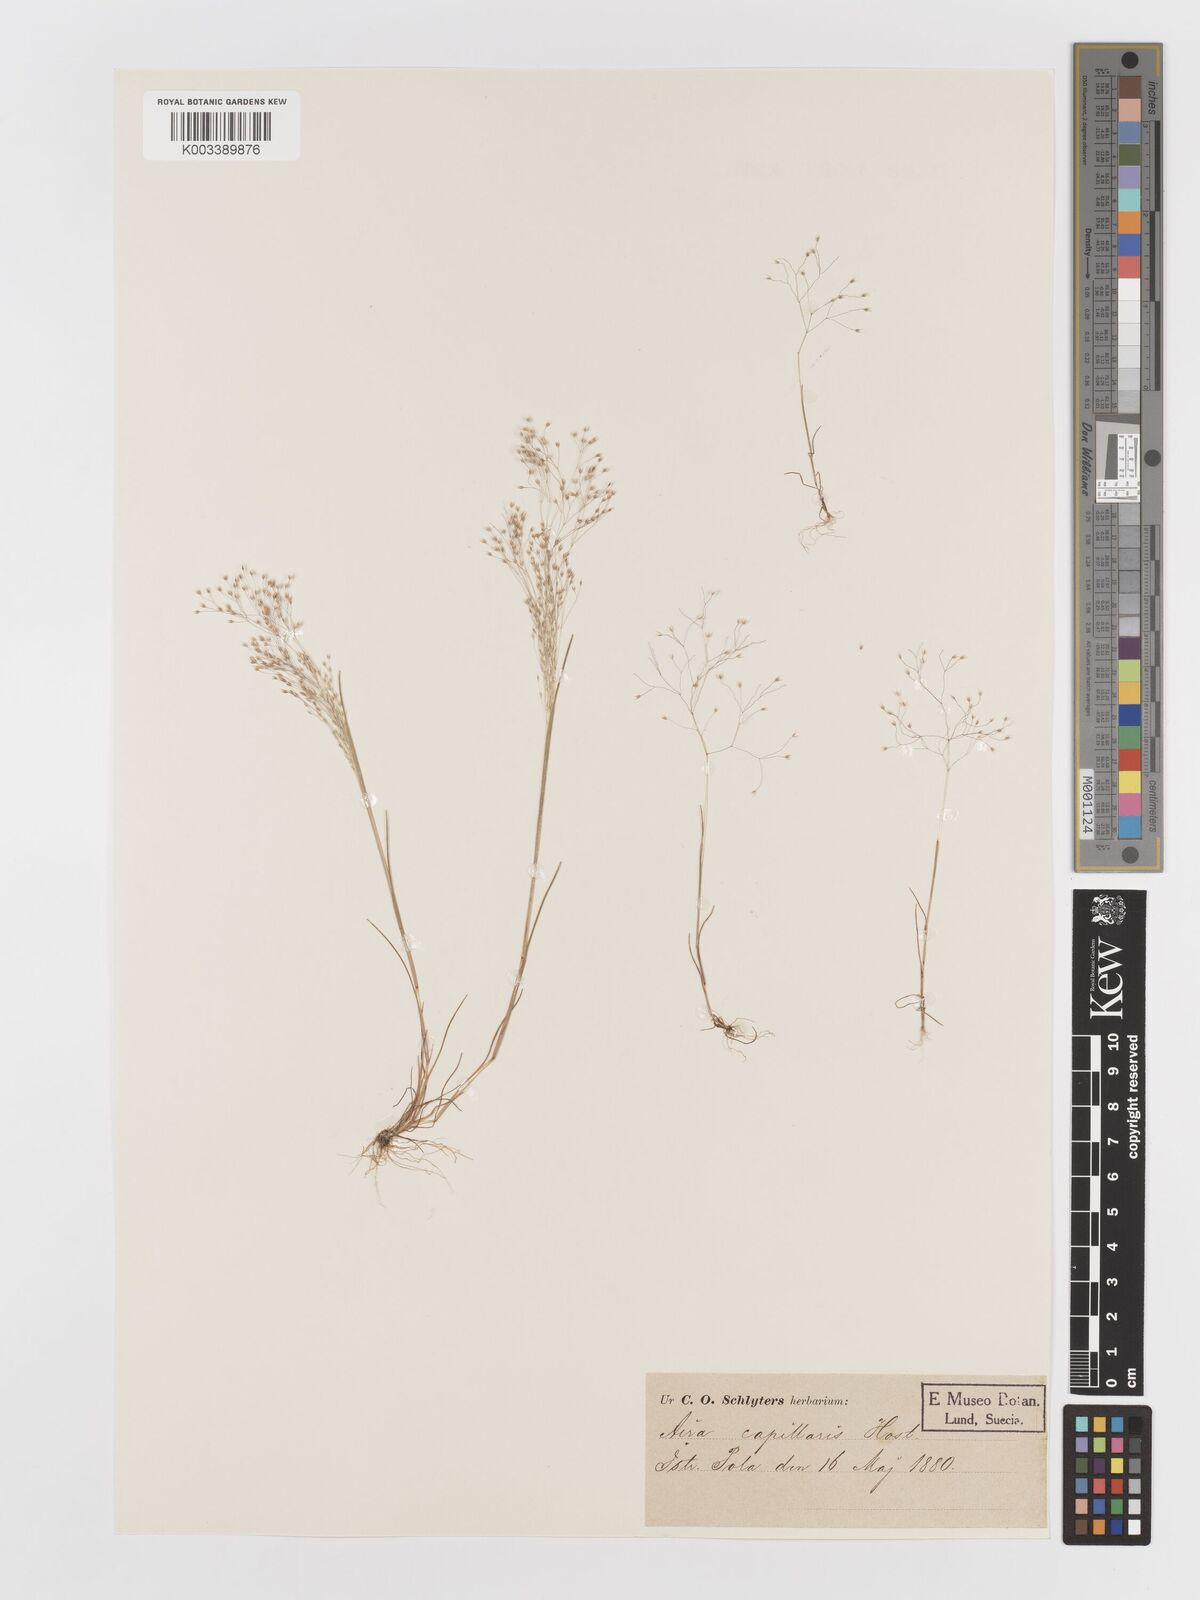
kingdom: Plantae
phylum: Tracheophyta
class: Liliopsida
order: Poales
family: Poaceae
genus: Aira
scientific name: Aira elegans
